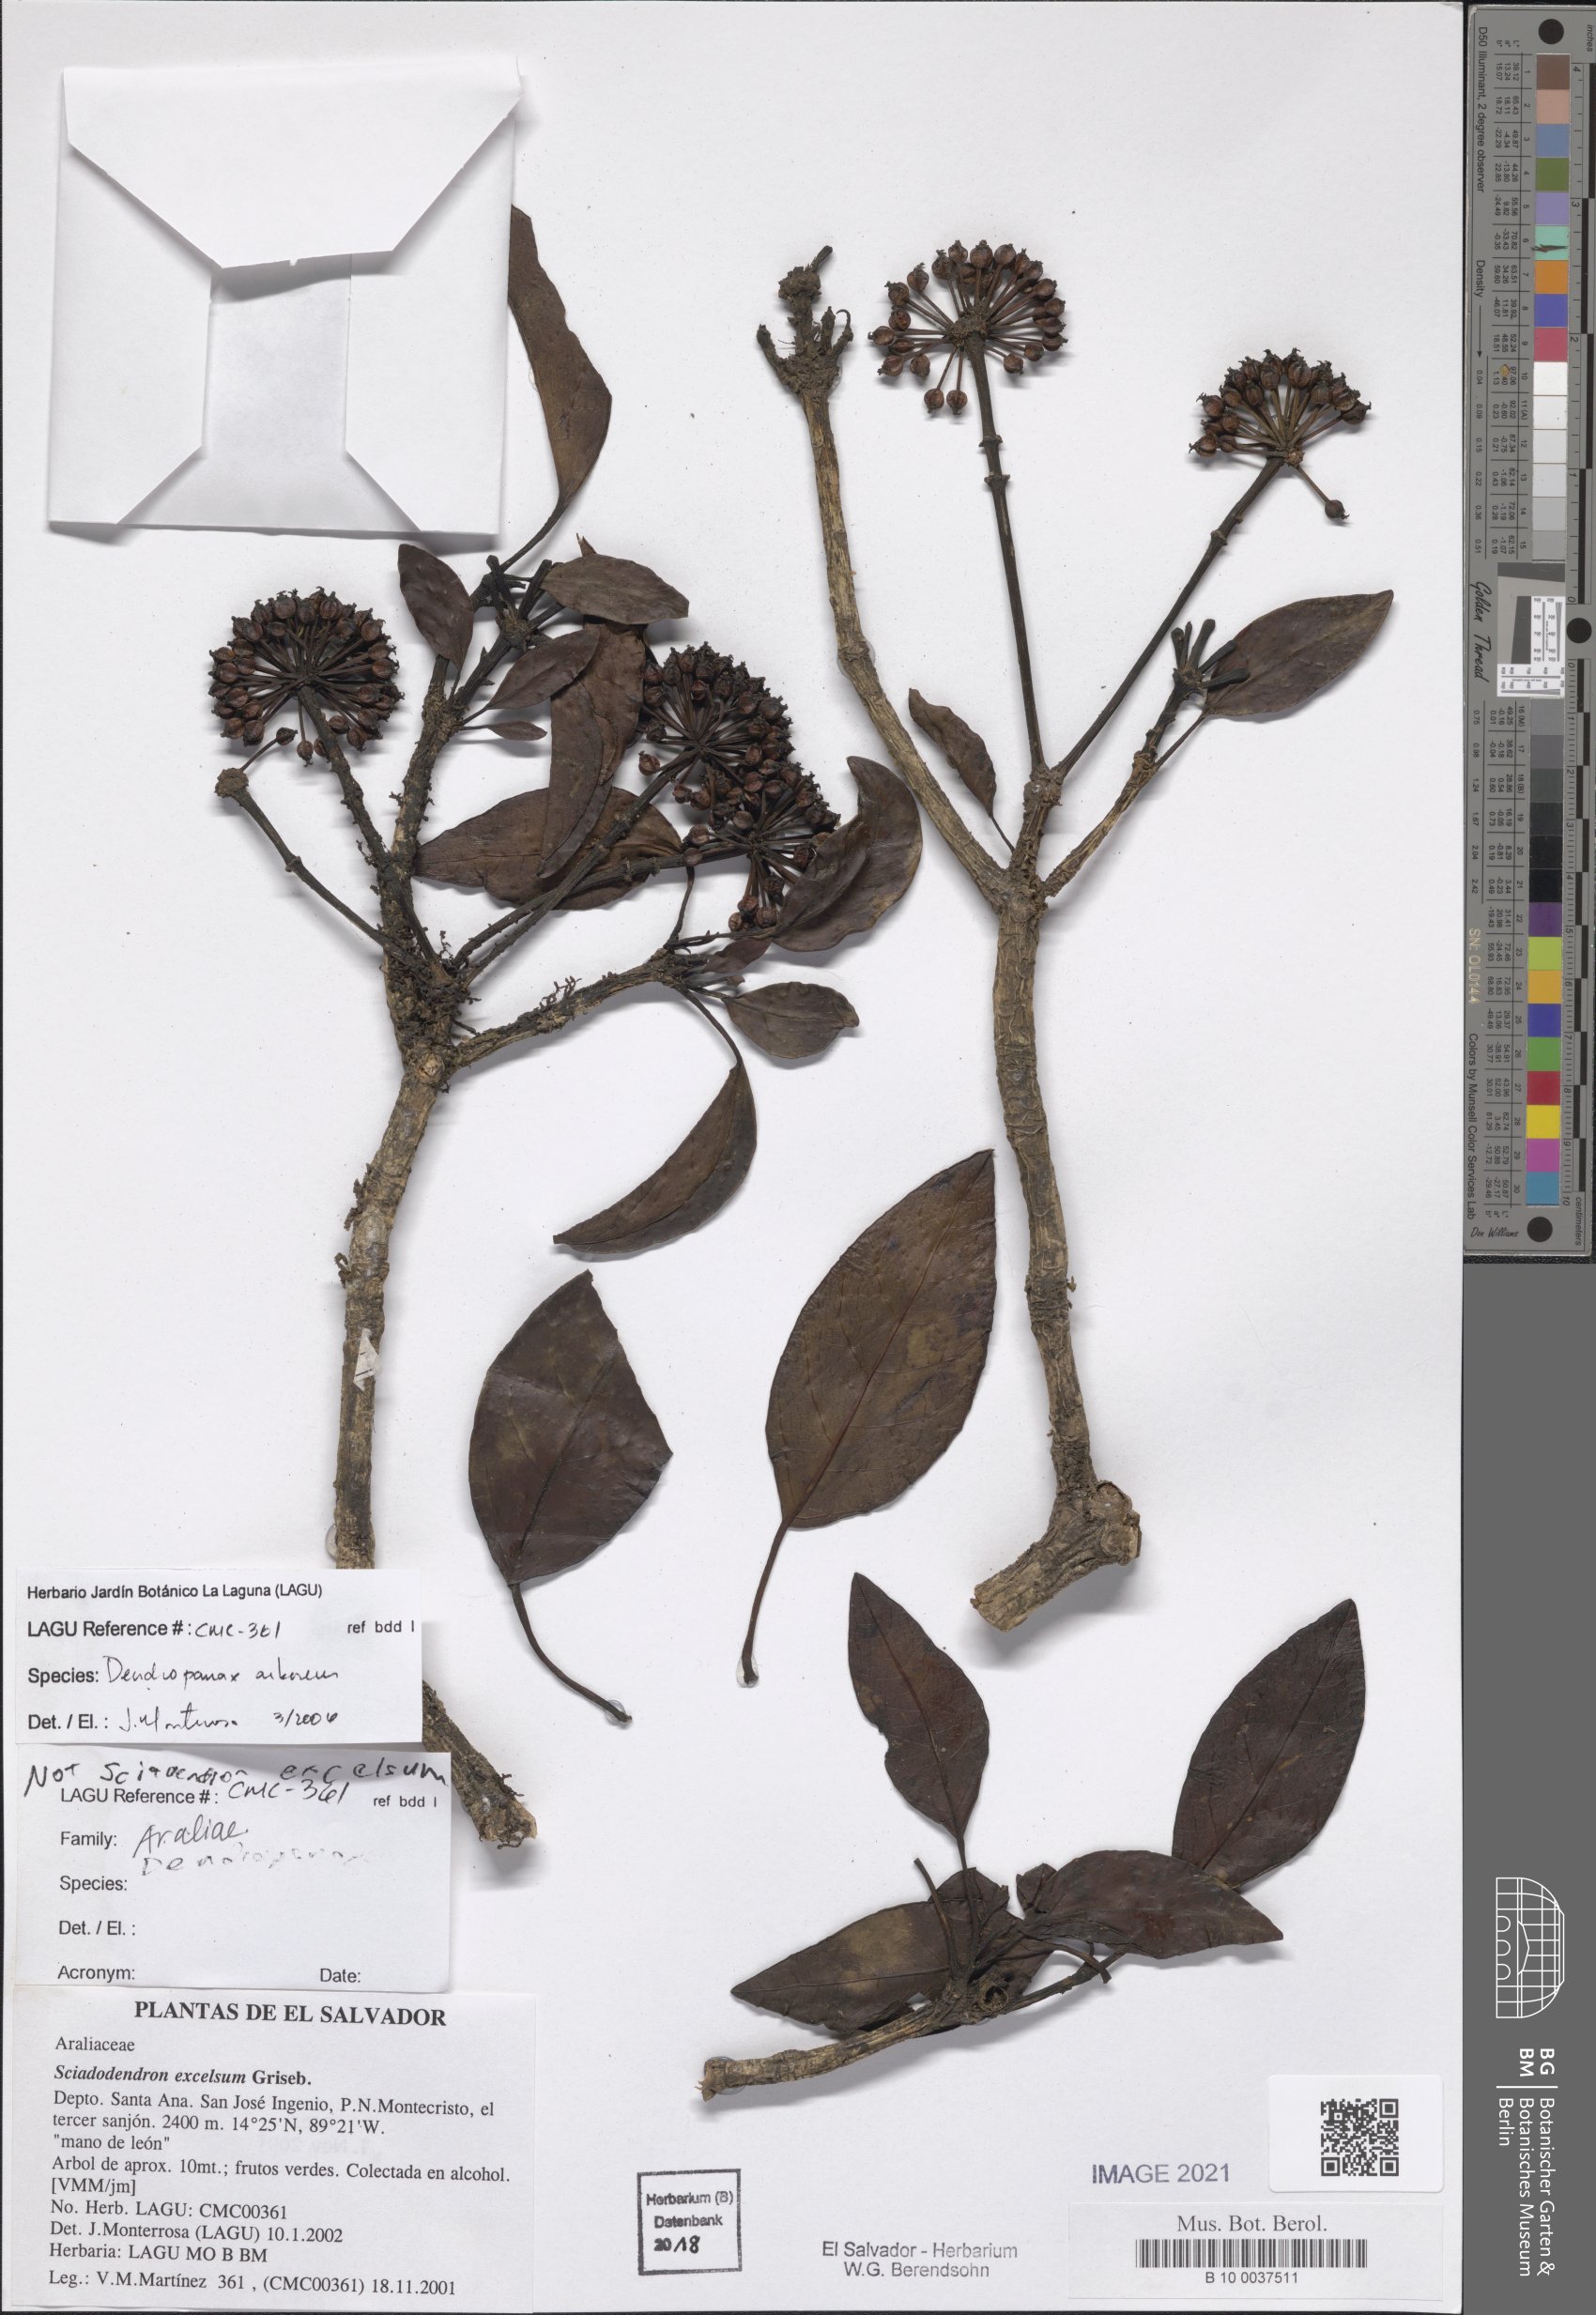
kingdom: Plantae
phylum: Tracheophyta
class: Magnoliopsida
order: Apiales
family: Araliaceae
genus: Dendropanax
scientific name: Dendropanax arboreus
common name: Potato-wood
